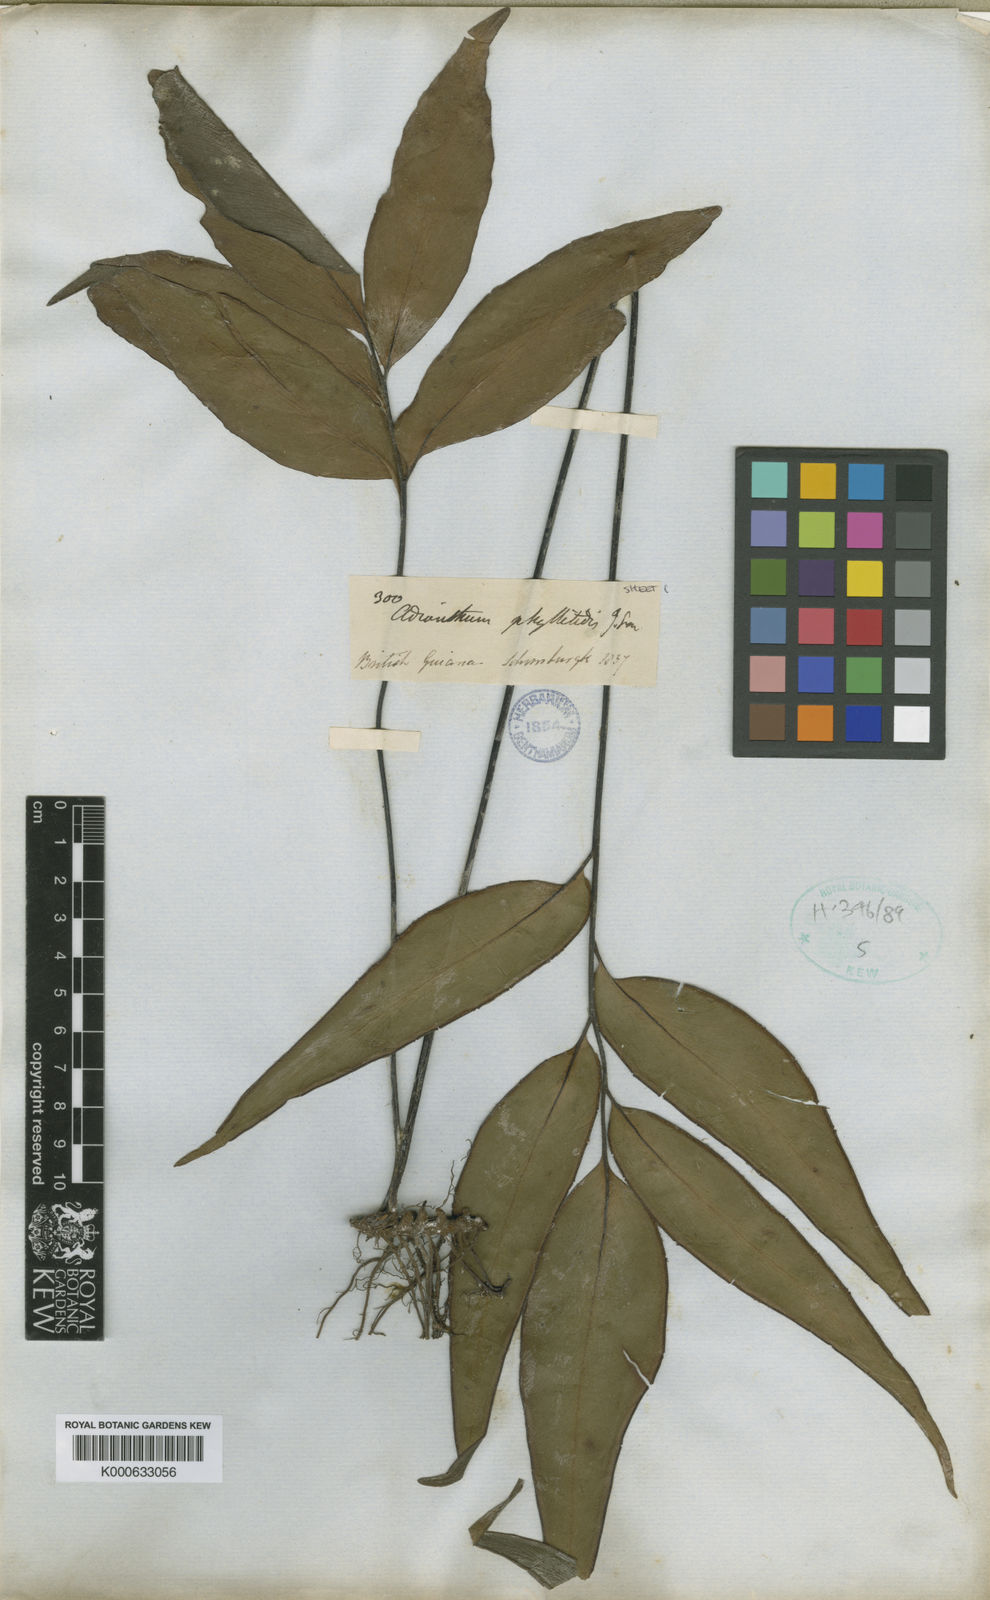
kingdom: Plantae
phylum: Tracheophyta
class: Polypodiopsida
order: Polypodiales
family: Pteridaceae
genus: Adiantum
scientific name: Adiantum phyllitidis
